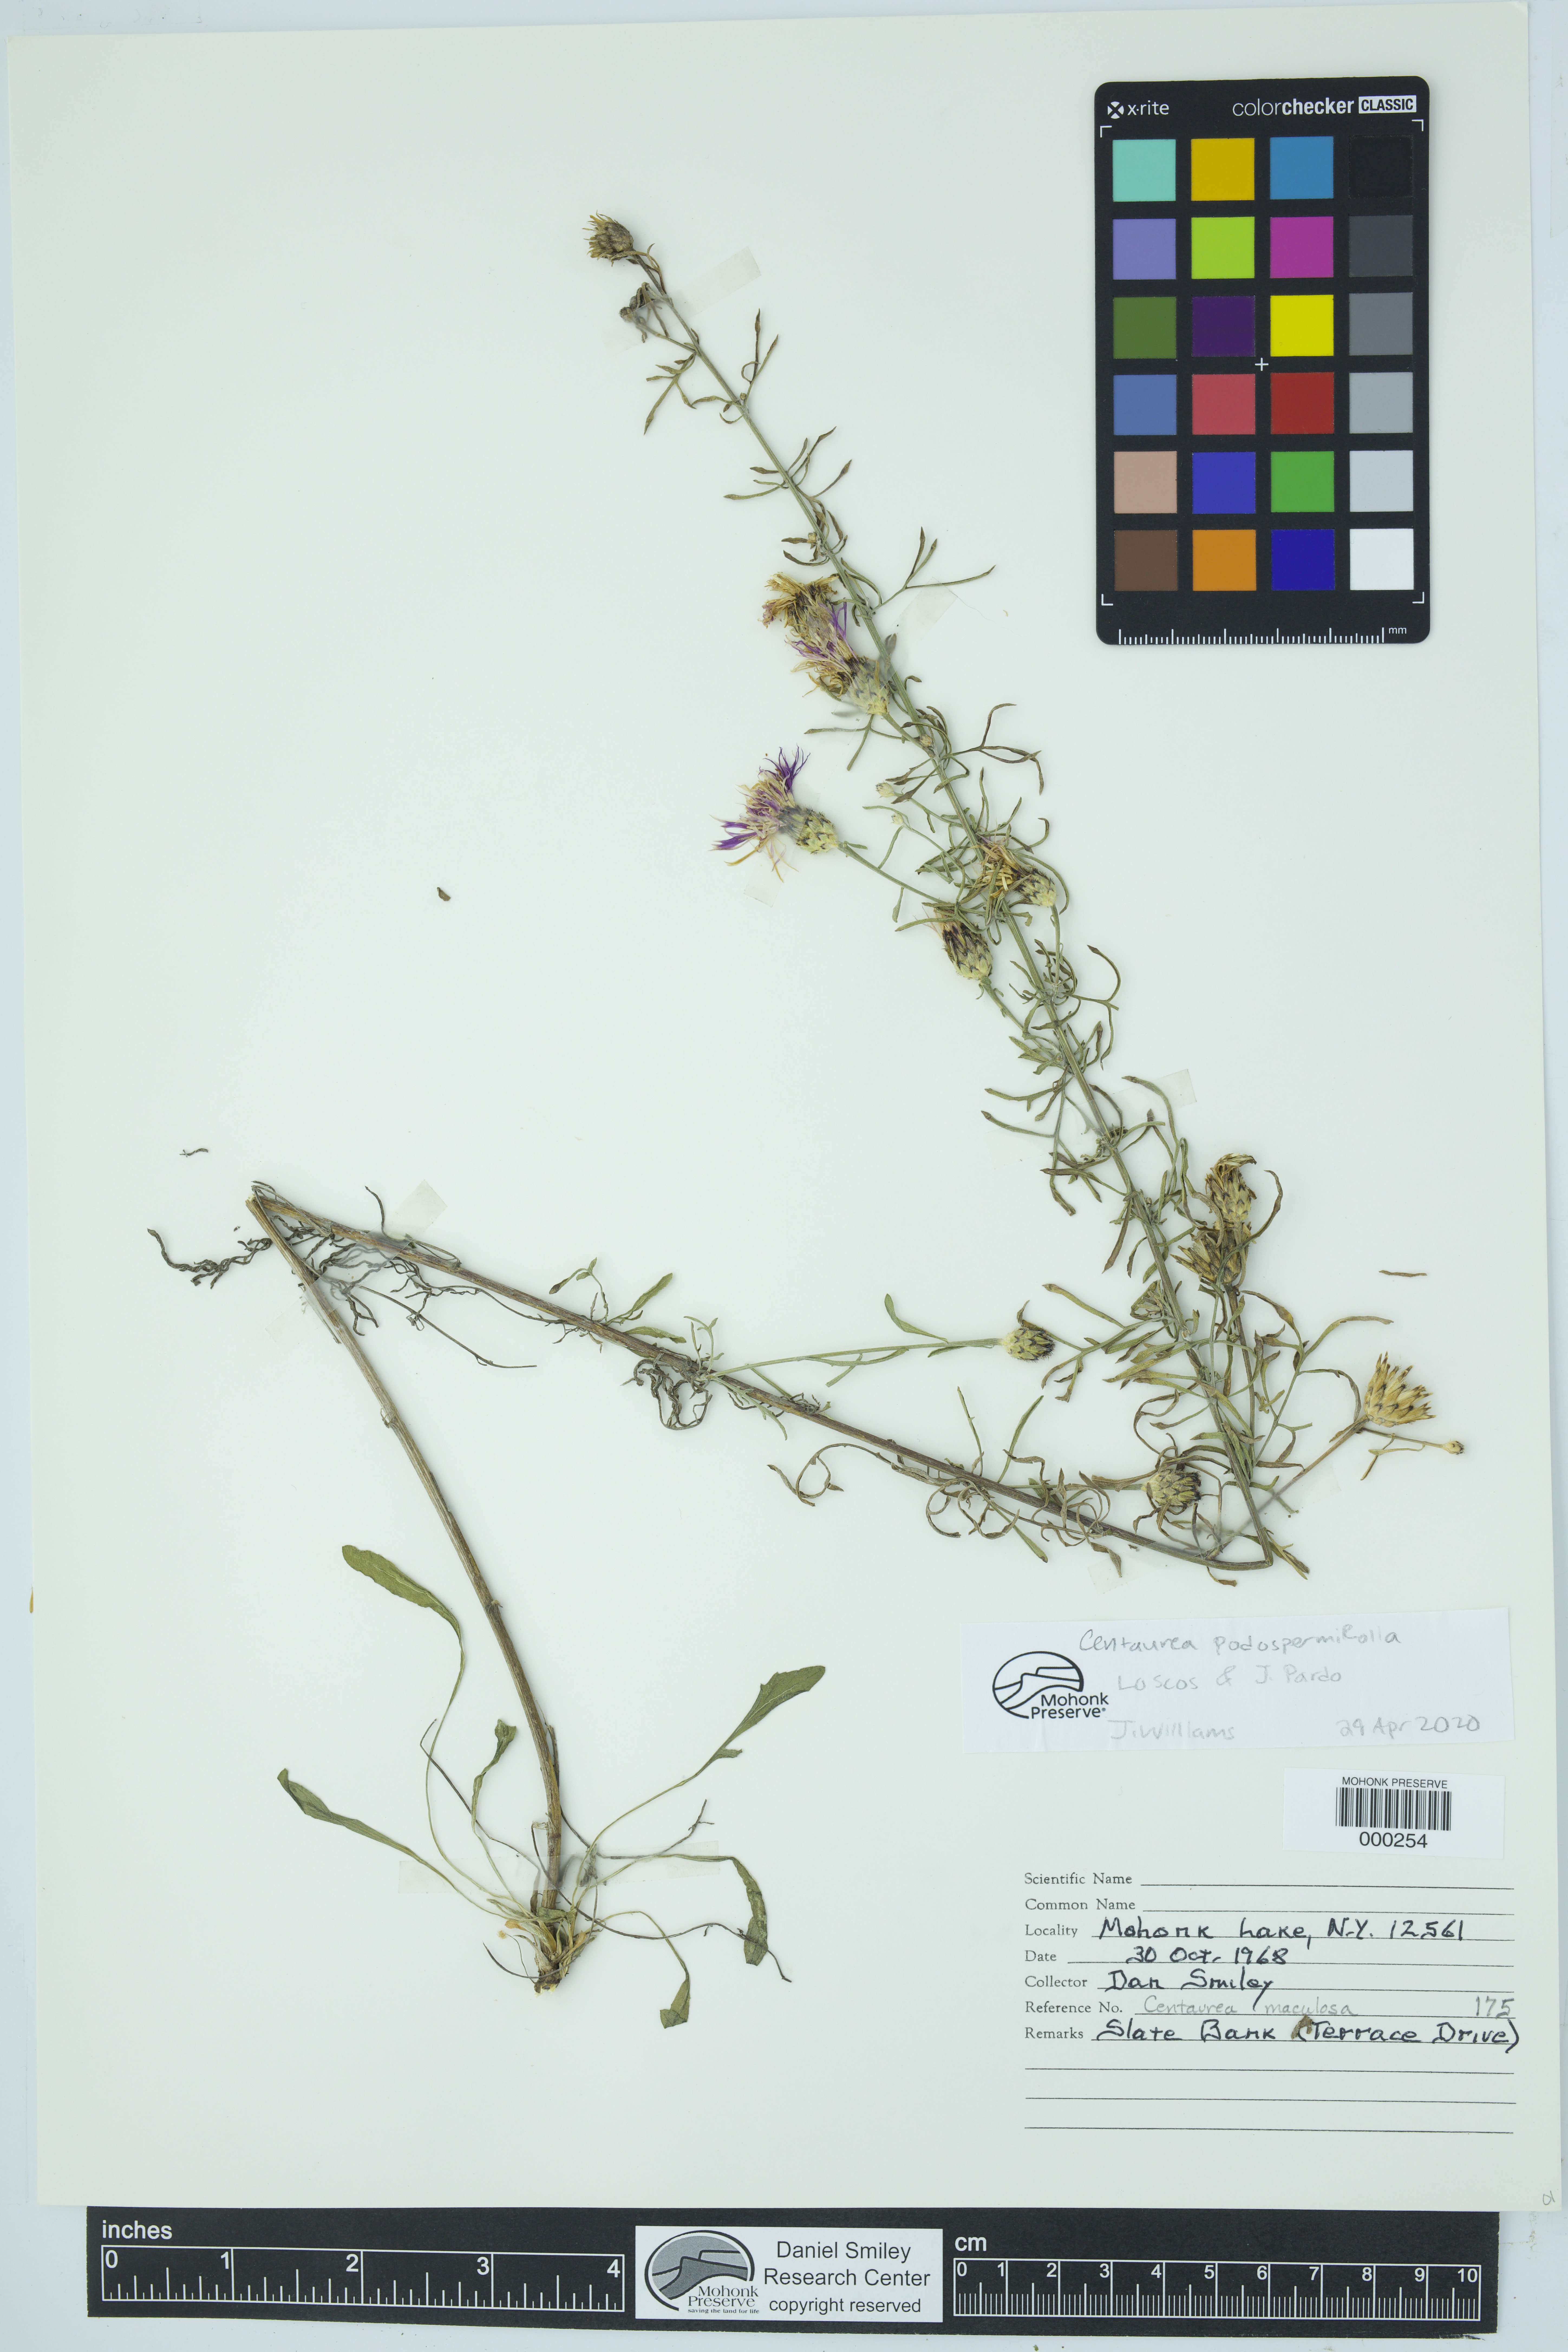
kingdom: Plantae
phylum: Tracheophyta
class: Magnoliopsida
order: Asterales
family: Asteraceae
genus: Centaurea
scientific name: Centaurea
